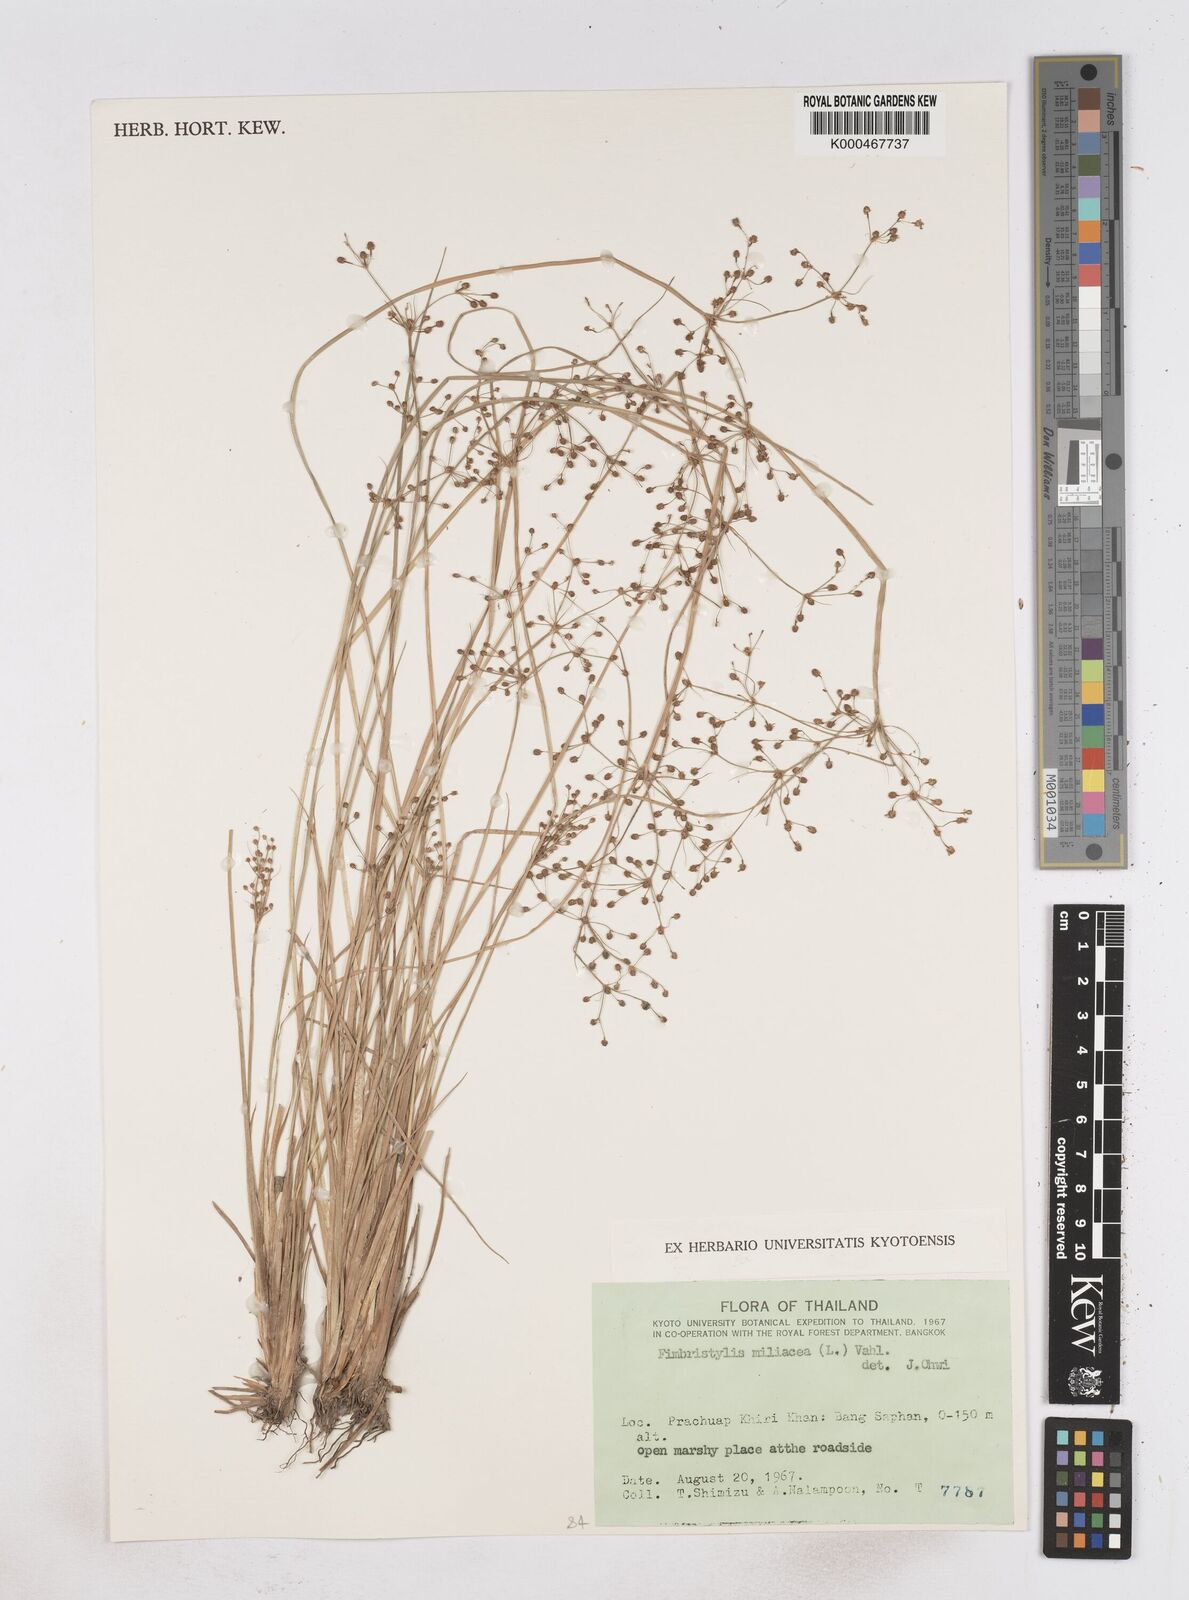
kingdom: Plantae
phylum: Tracheophyta
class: Liliopsida
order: Poales
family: Cyperaceae
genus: Fimbristylis
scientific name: Fimbristylis quinquangularis
